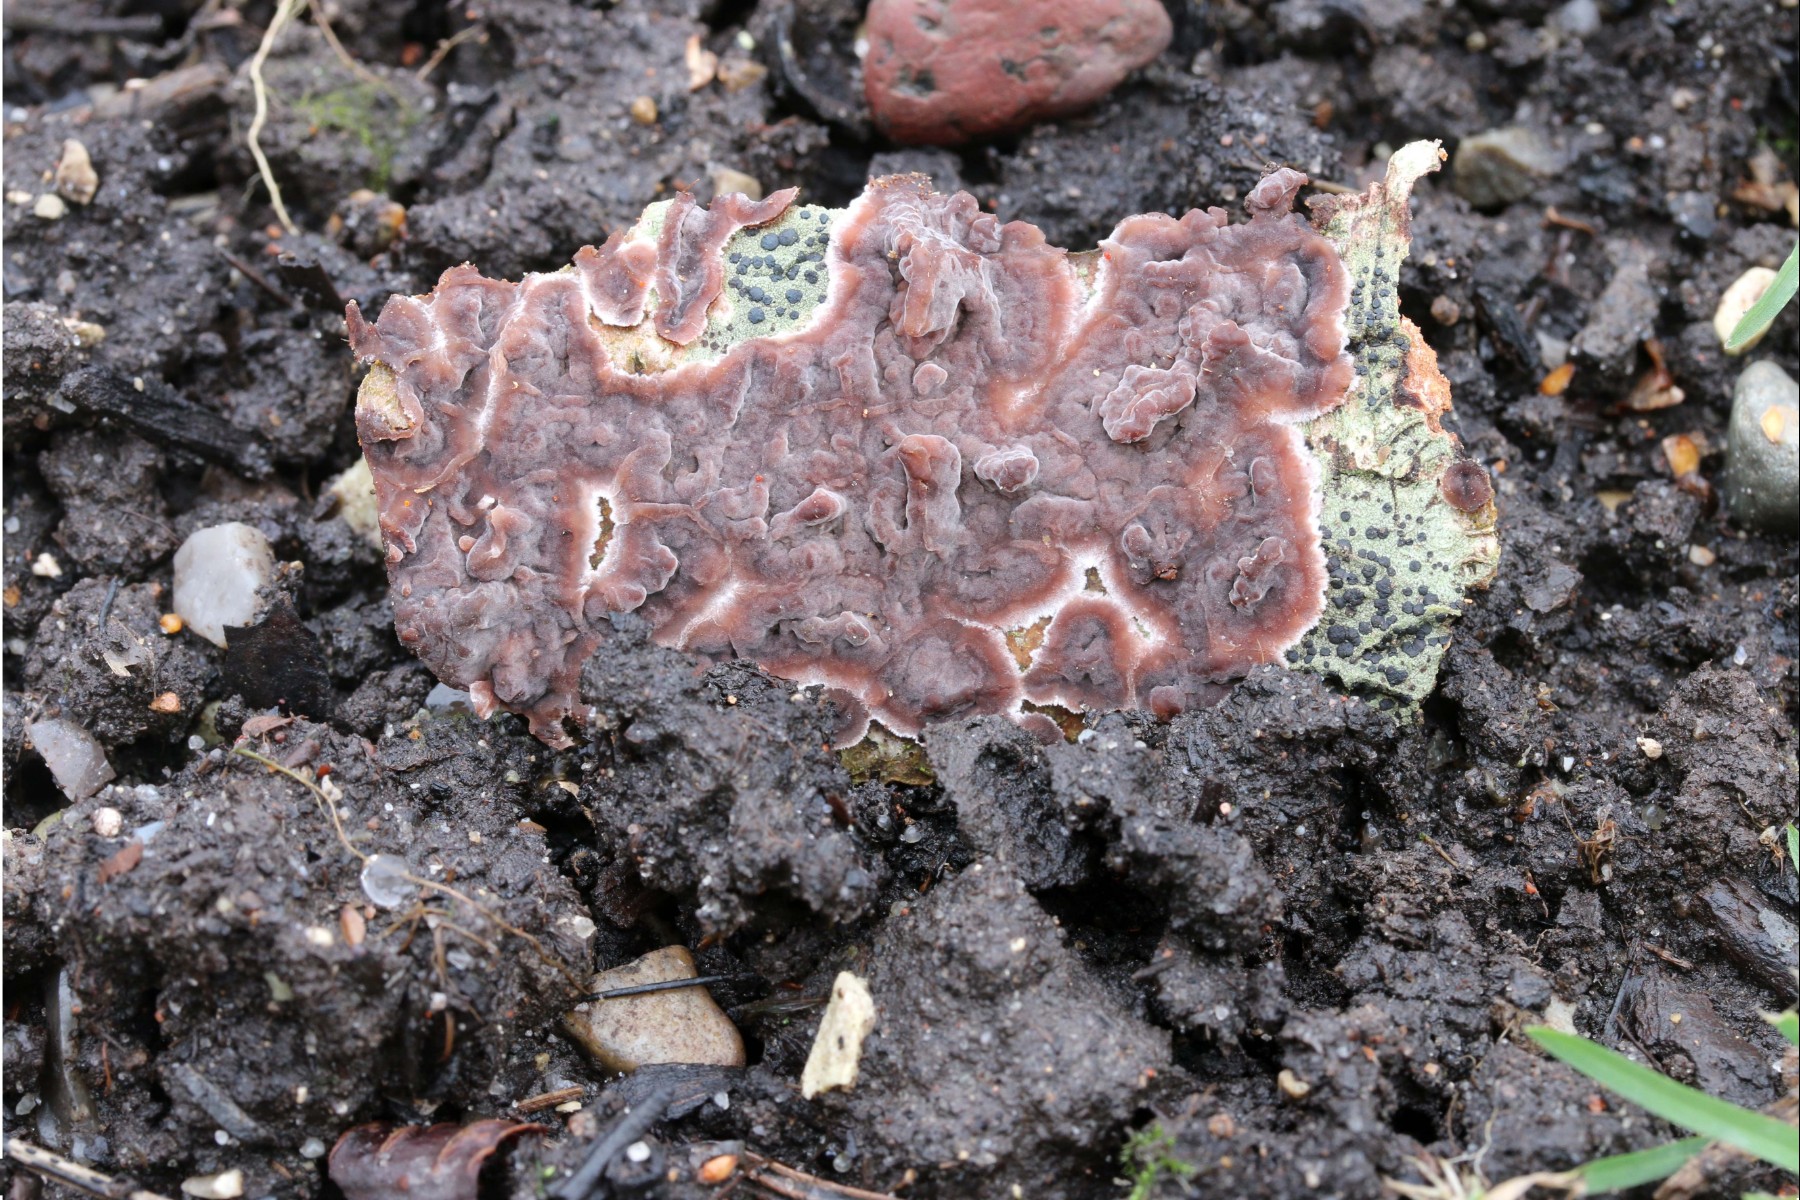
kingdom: Fungi
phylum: Basidiomycota
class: Agaricomycetes
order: Russulales
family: Peniophoraceae
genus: Peniophora
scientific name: Peniophora quercina
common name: ege-voksskind
